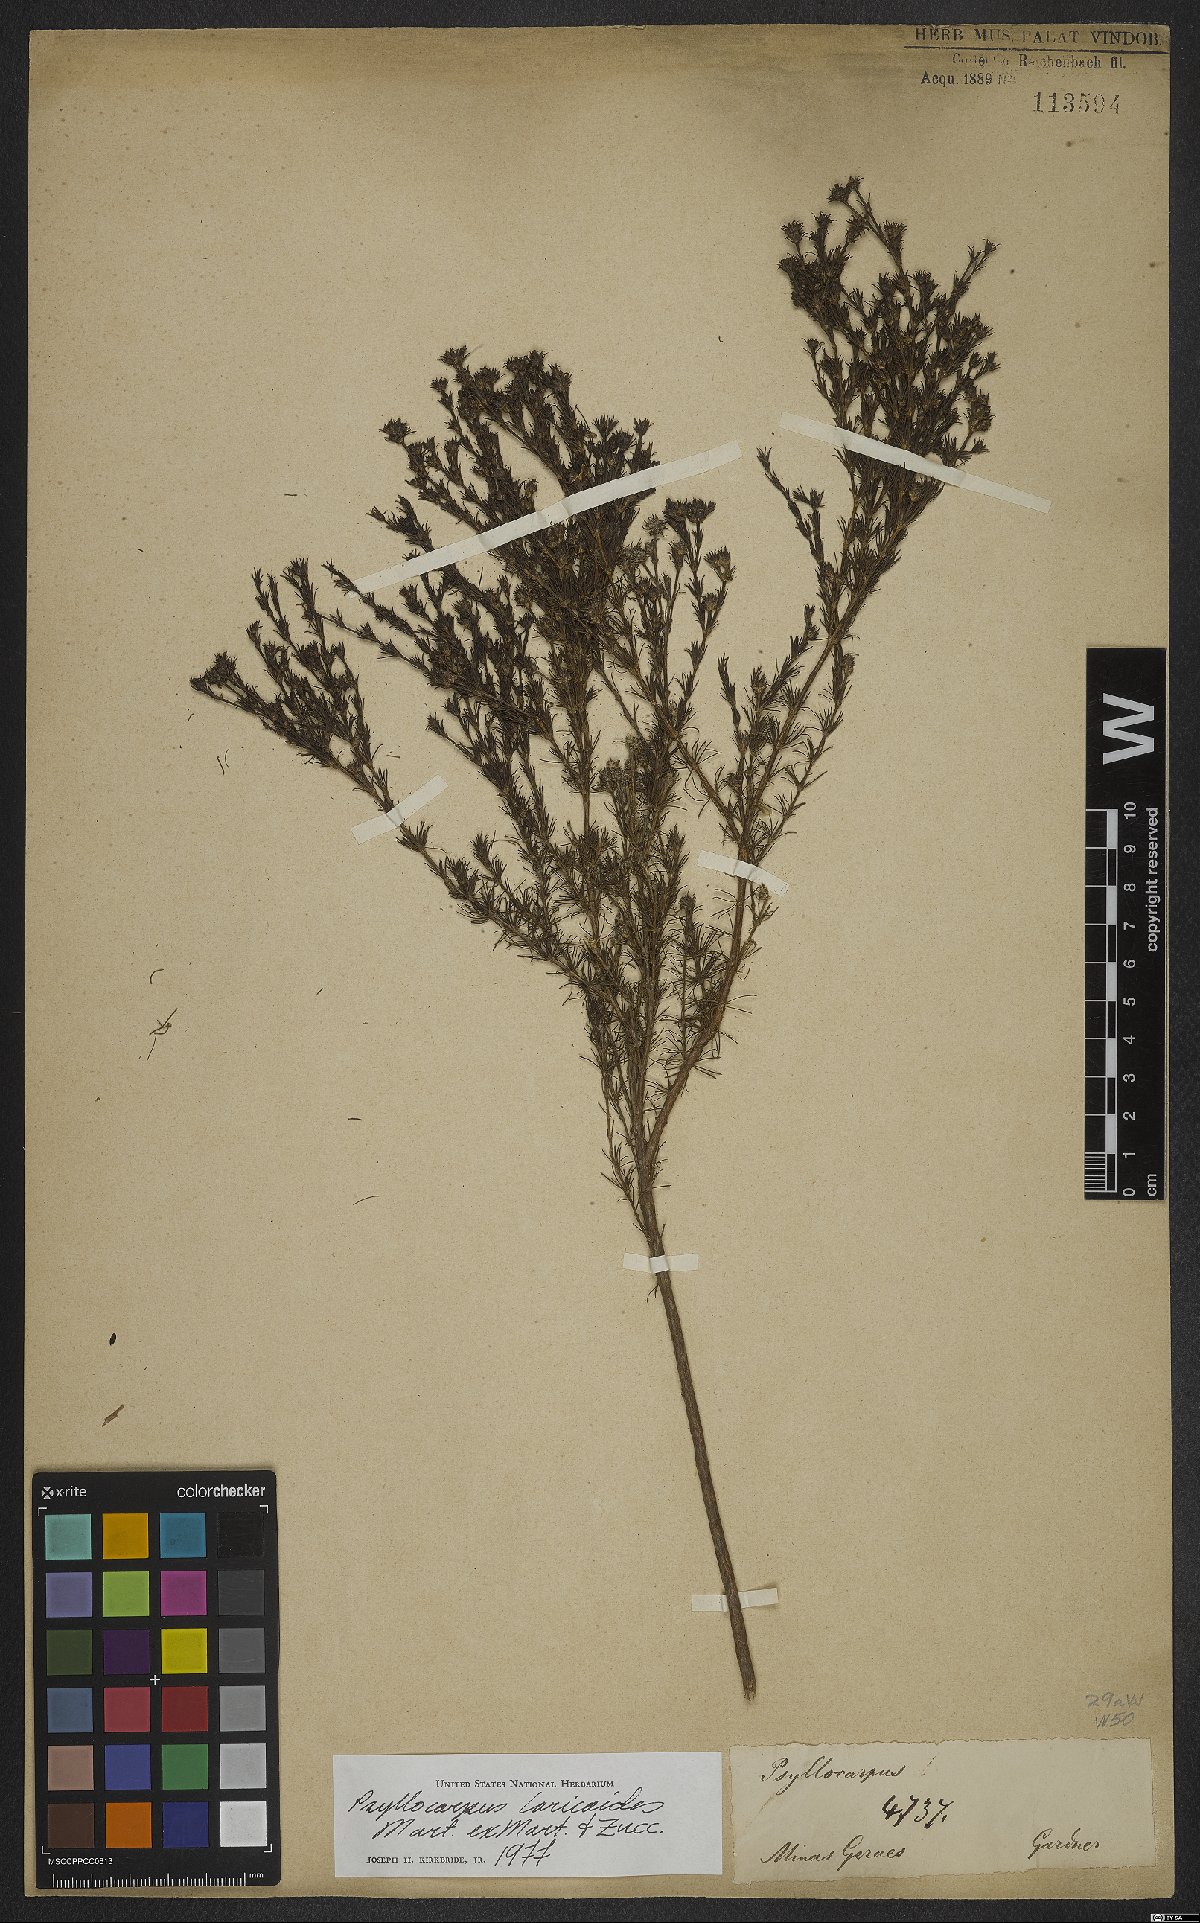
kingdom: Plantae
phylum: Tracheophyta
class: Magnoliopsida
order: Gentianales
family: Rubiaceae
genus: Psyllocarpus
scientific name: Psyllocarpus laricoides
